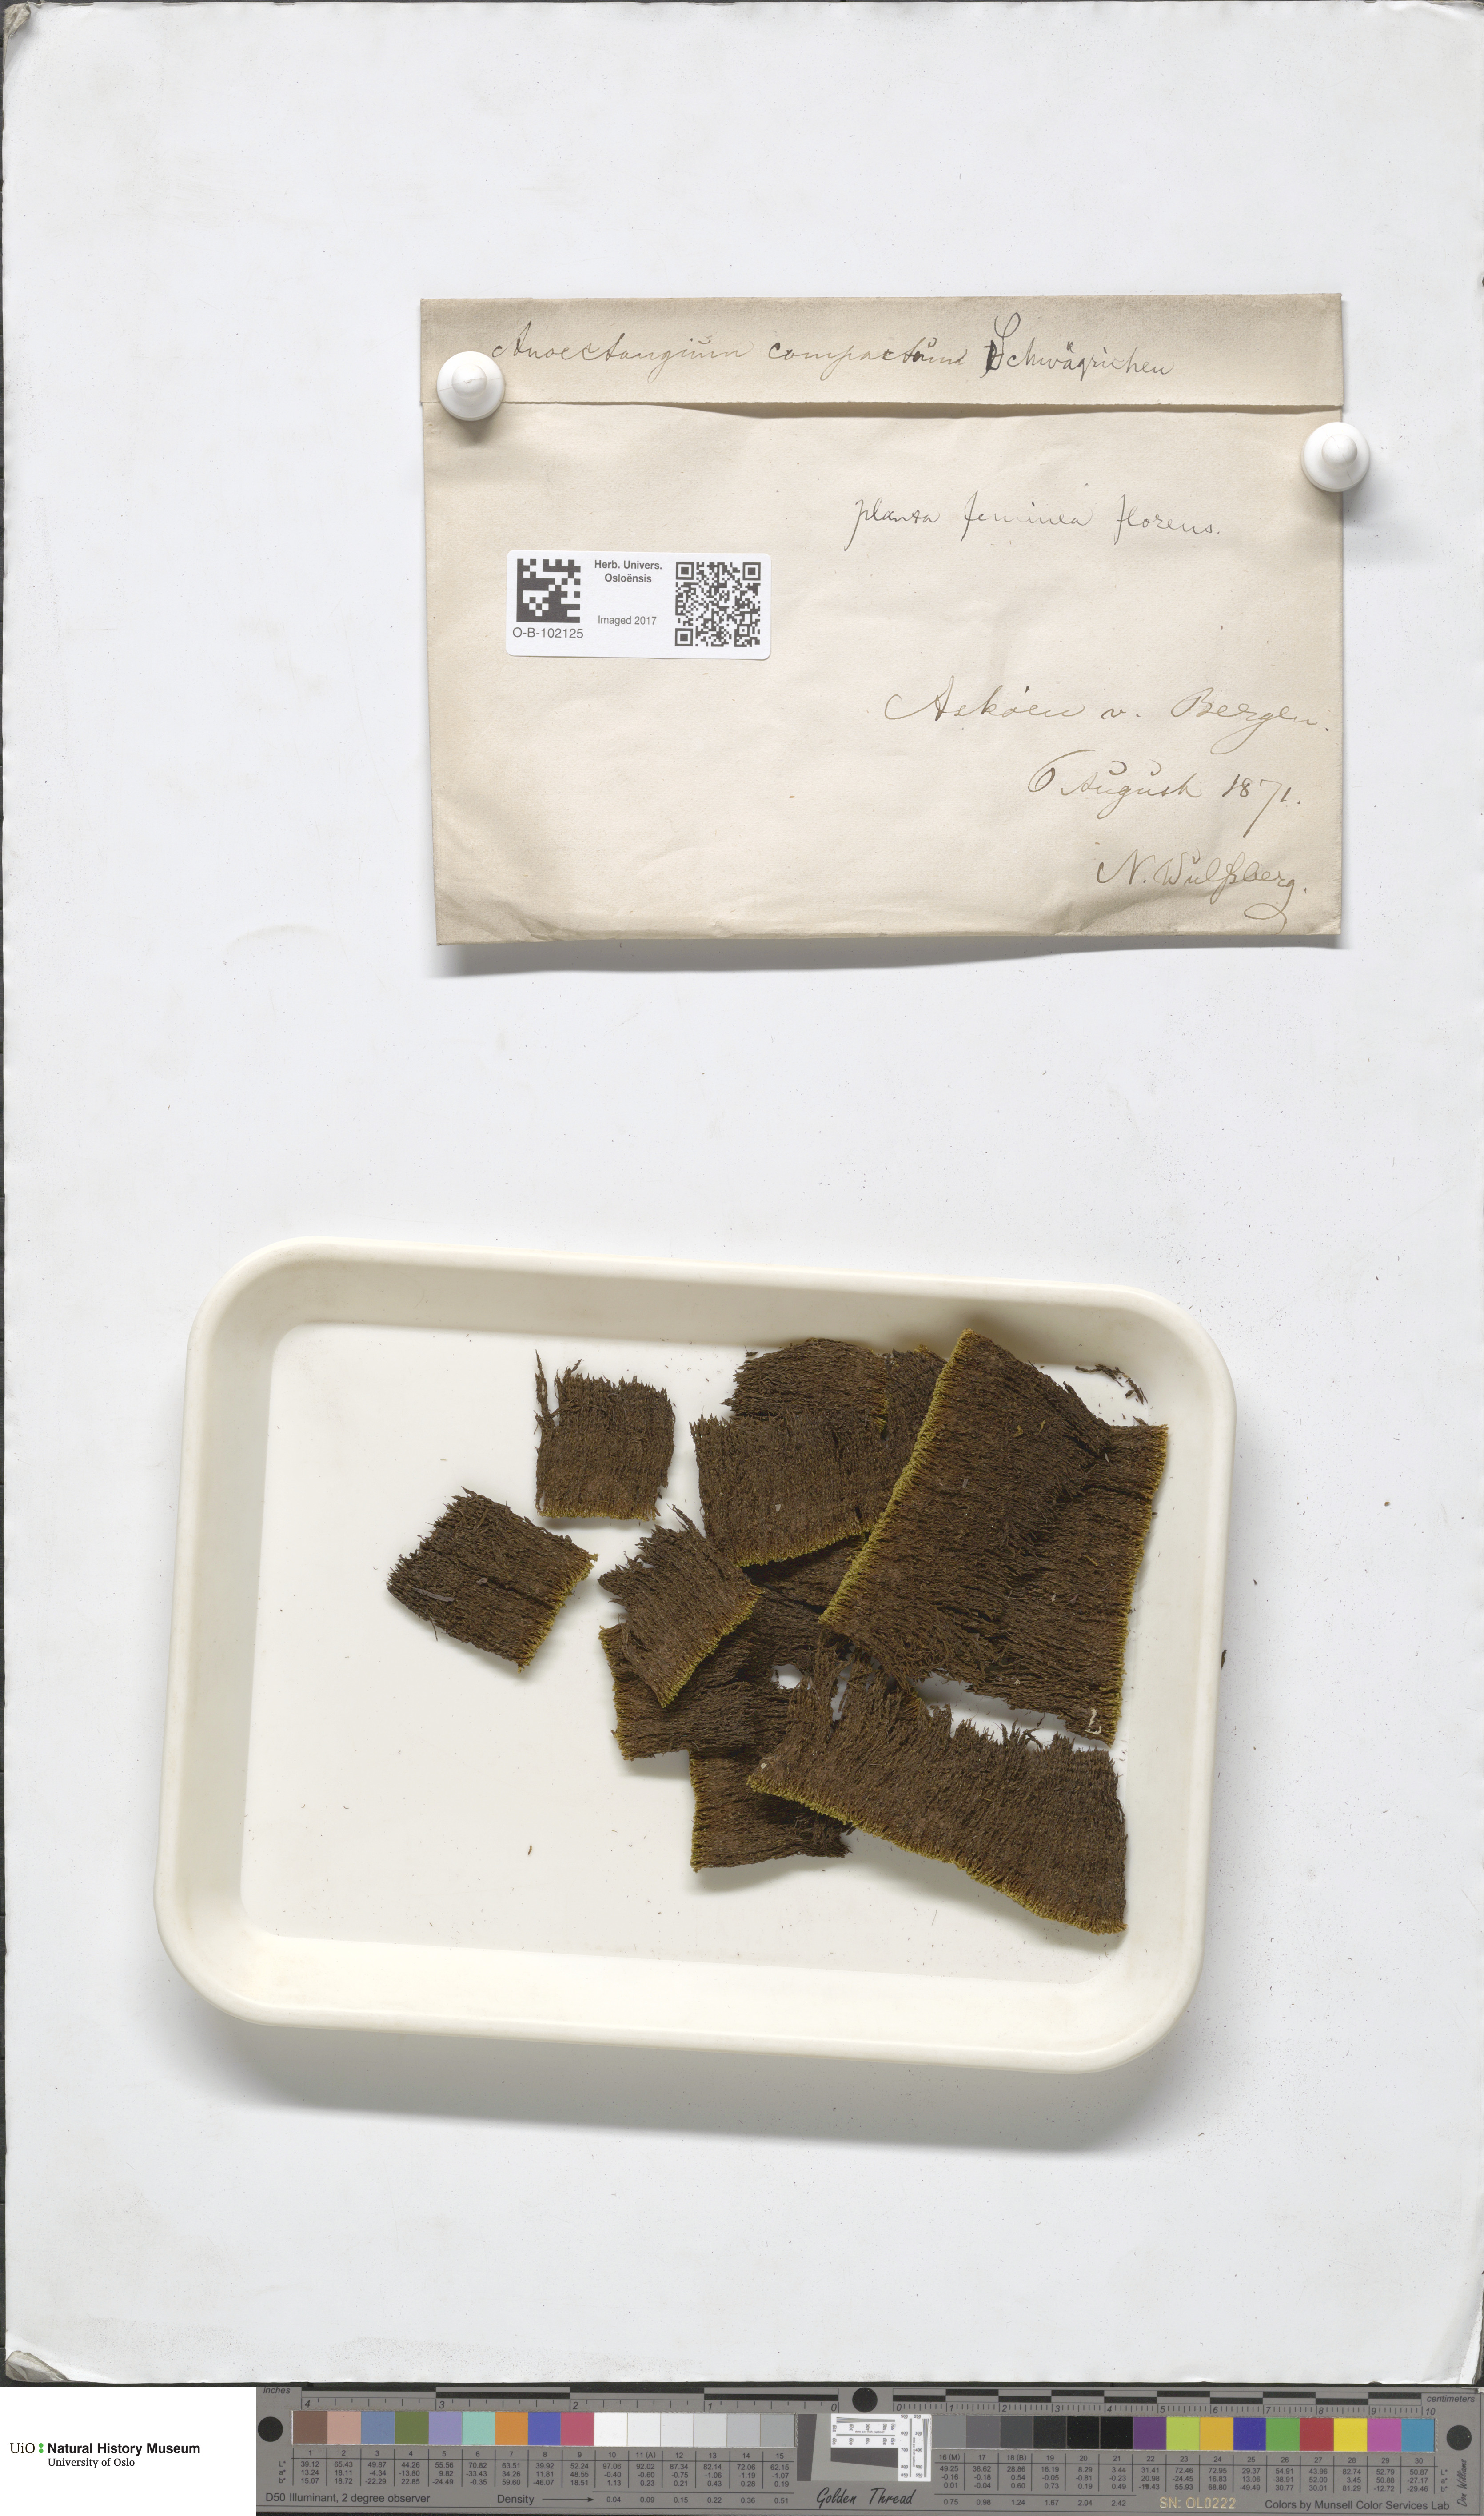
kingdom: Plantae
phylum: Bryophyta
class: Bryopsida
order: Pottiales
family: Pottiaceae
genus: Anoectangium
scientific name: Anoectangium aestivum
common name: Summer-moss
